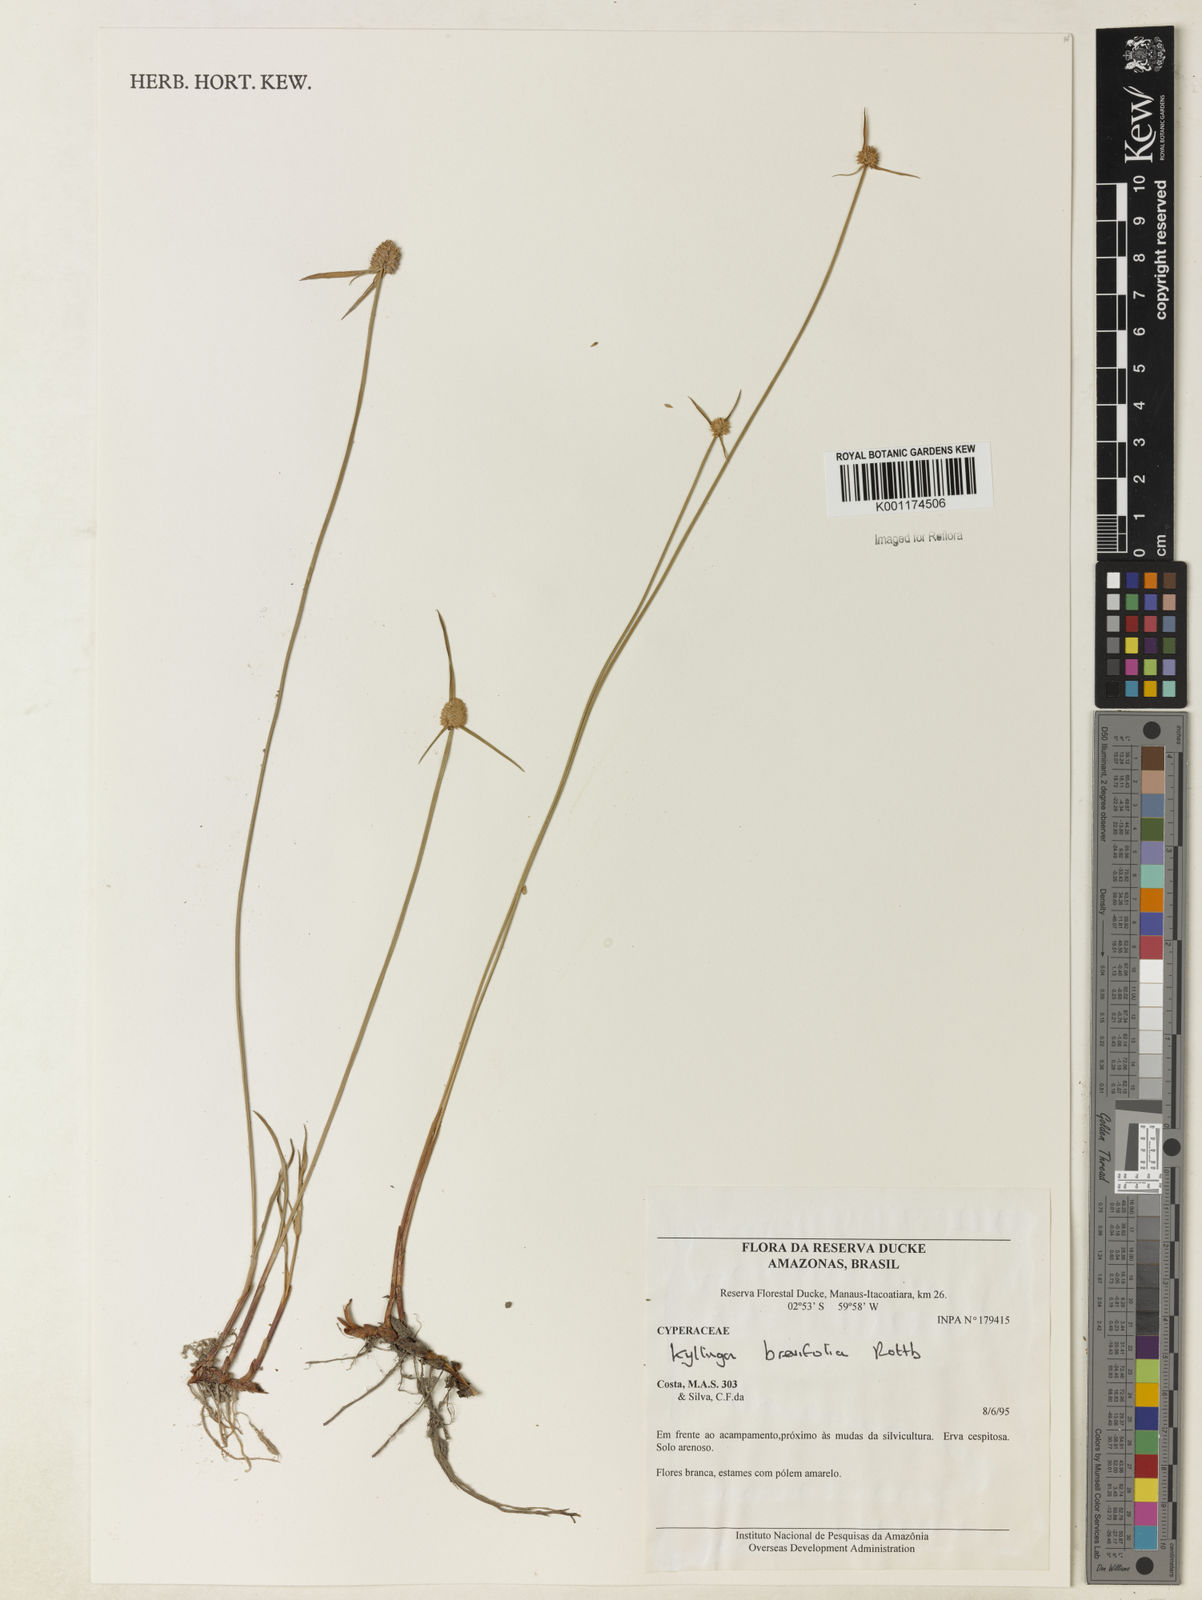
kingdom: Plantae
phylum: Tracheophyta
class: Liliopsida
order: Poales
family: Cyperaceae
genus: Cyperus
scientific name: Cyperus brevifolius
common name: Globe kyllinga
